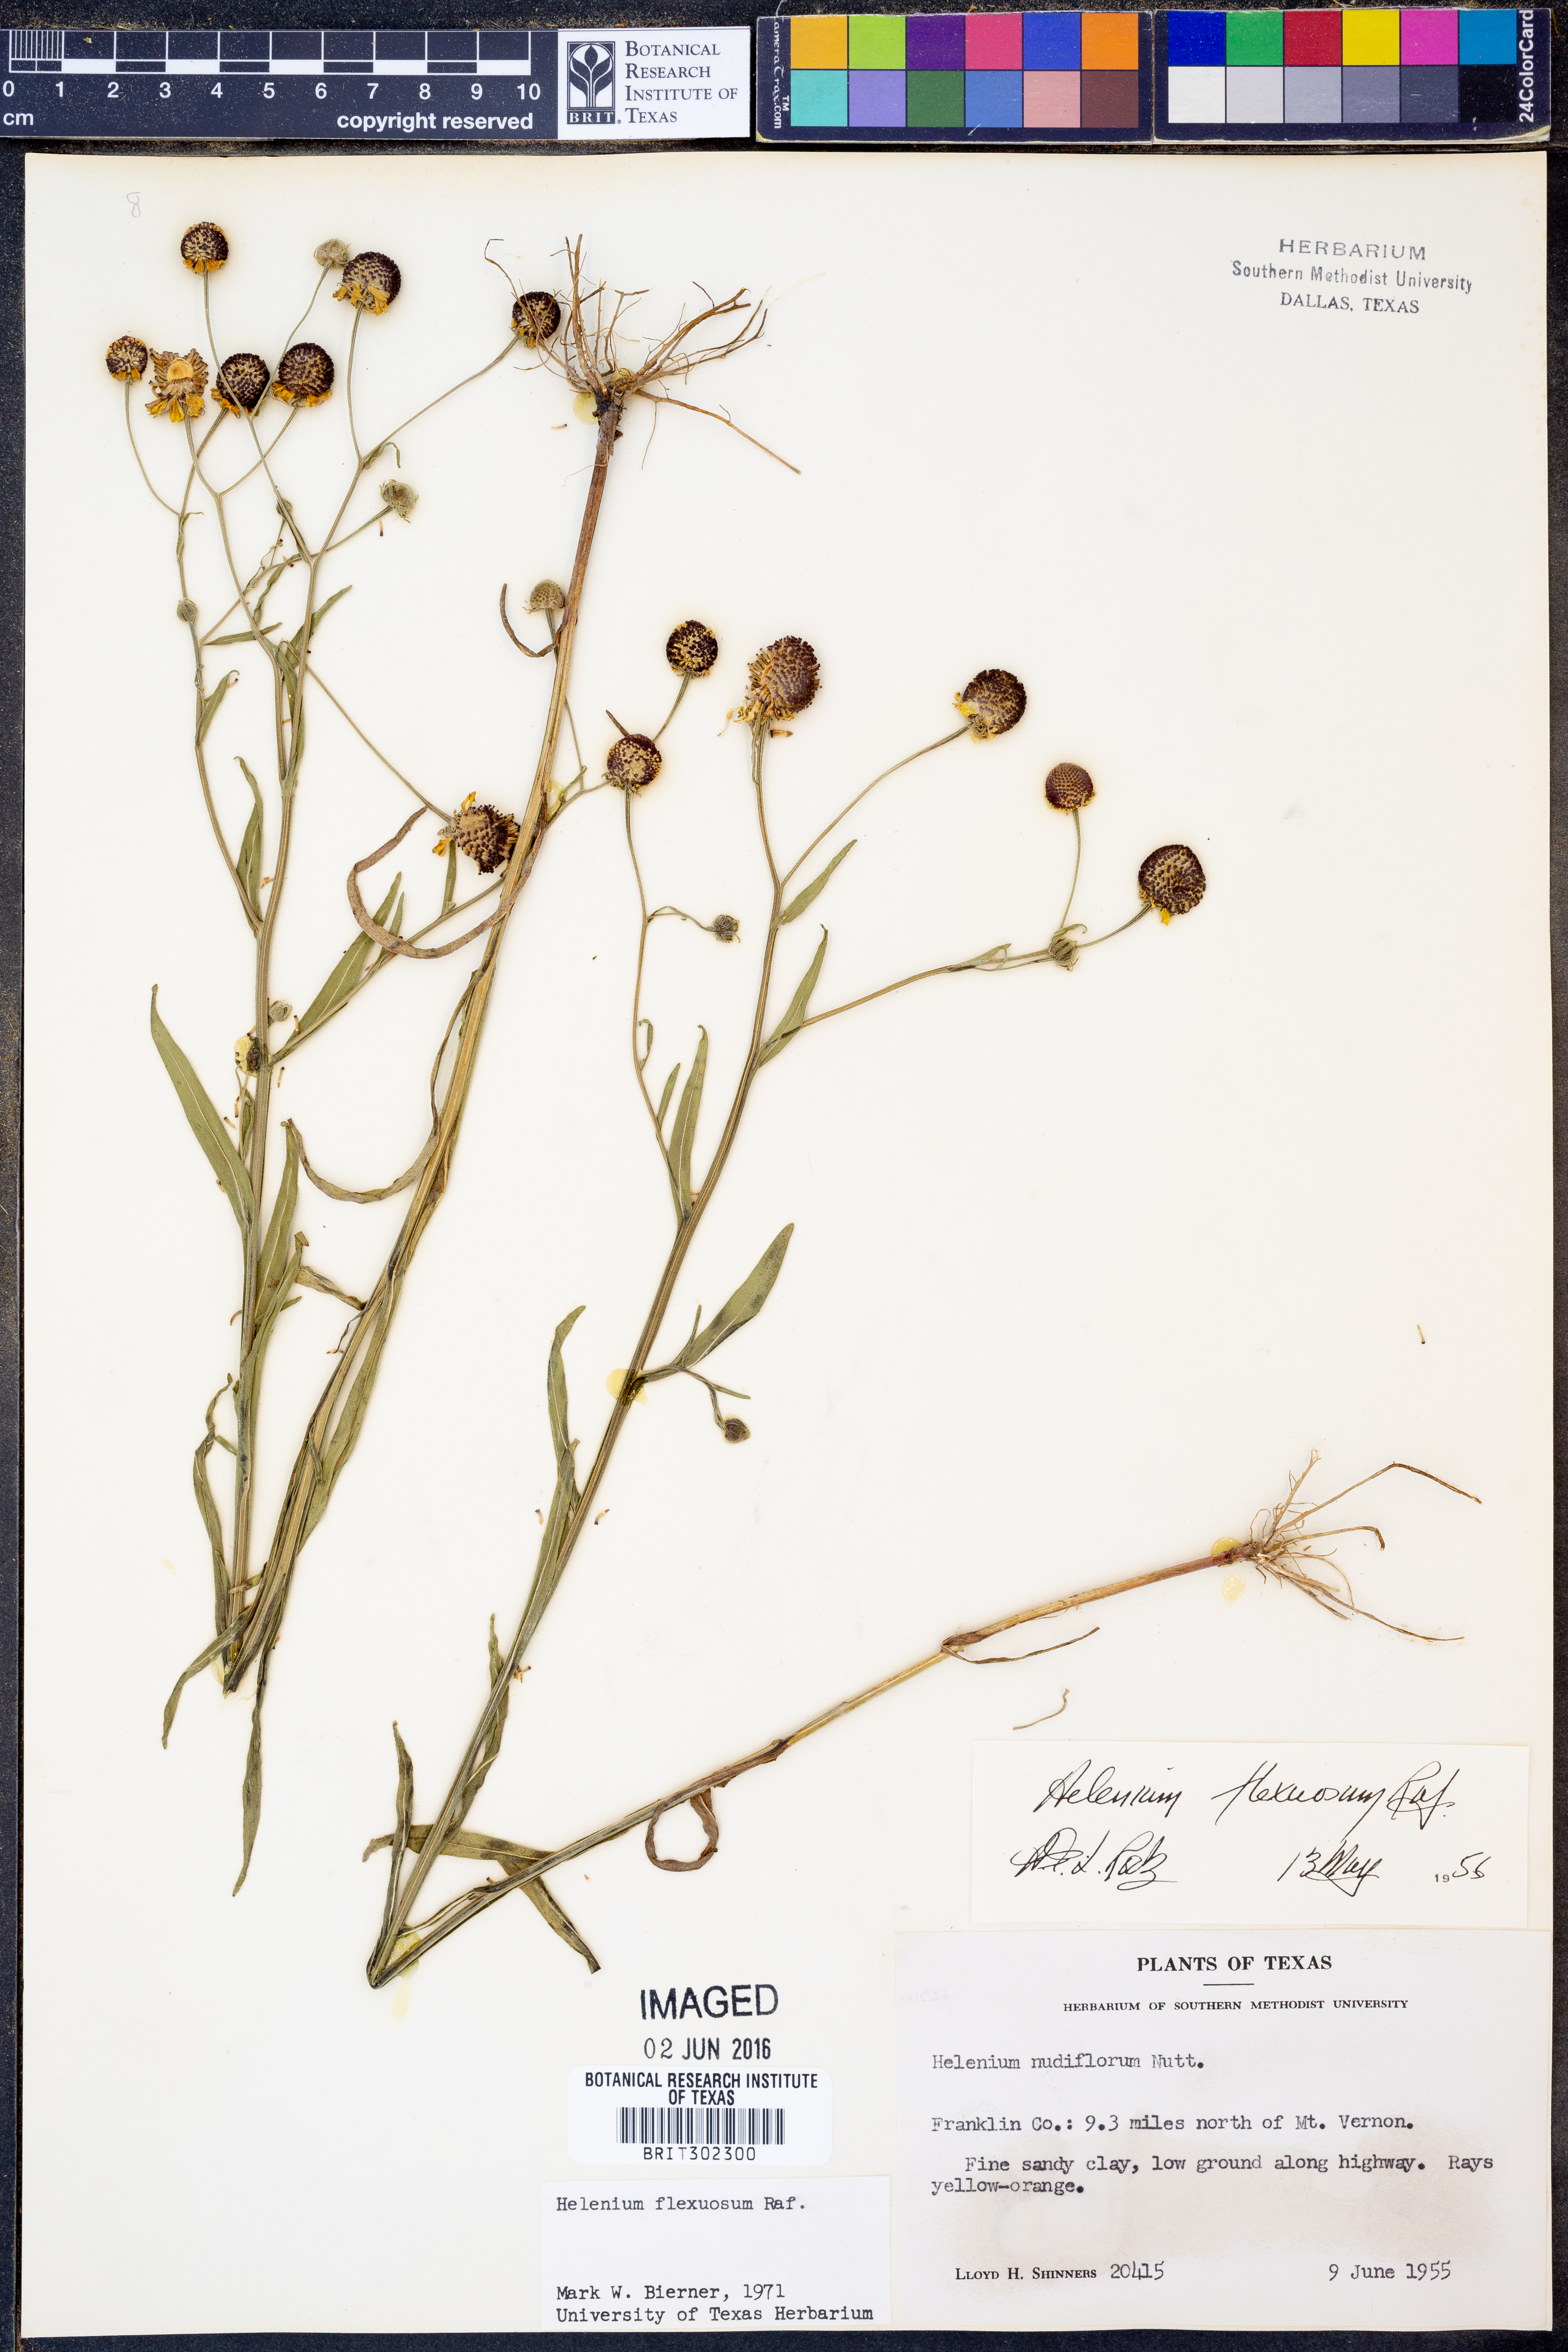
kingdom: Plantae
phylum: Tracheophyta
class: Magnoliopsida
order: Asterales
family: Asteraceae
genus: Helenium
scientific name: Helenium flexuosum
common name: Naked-flowered sneezeweed
